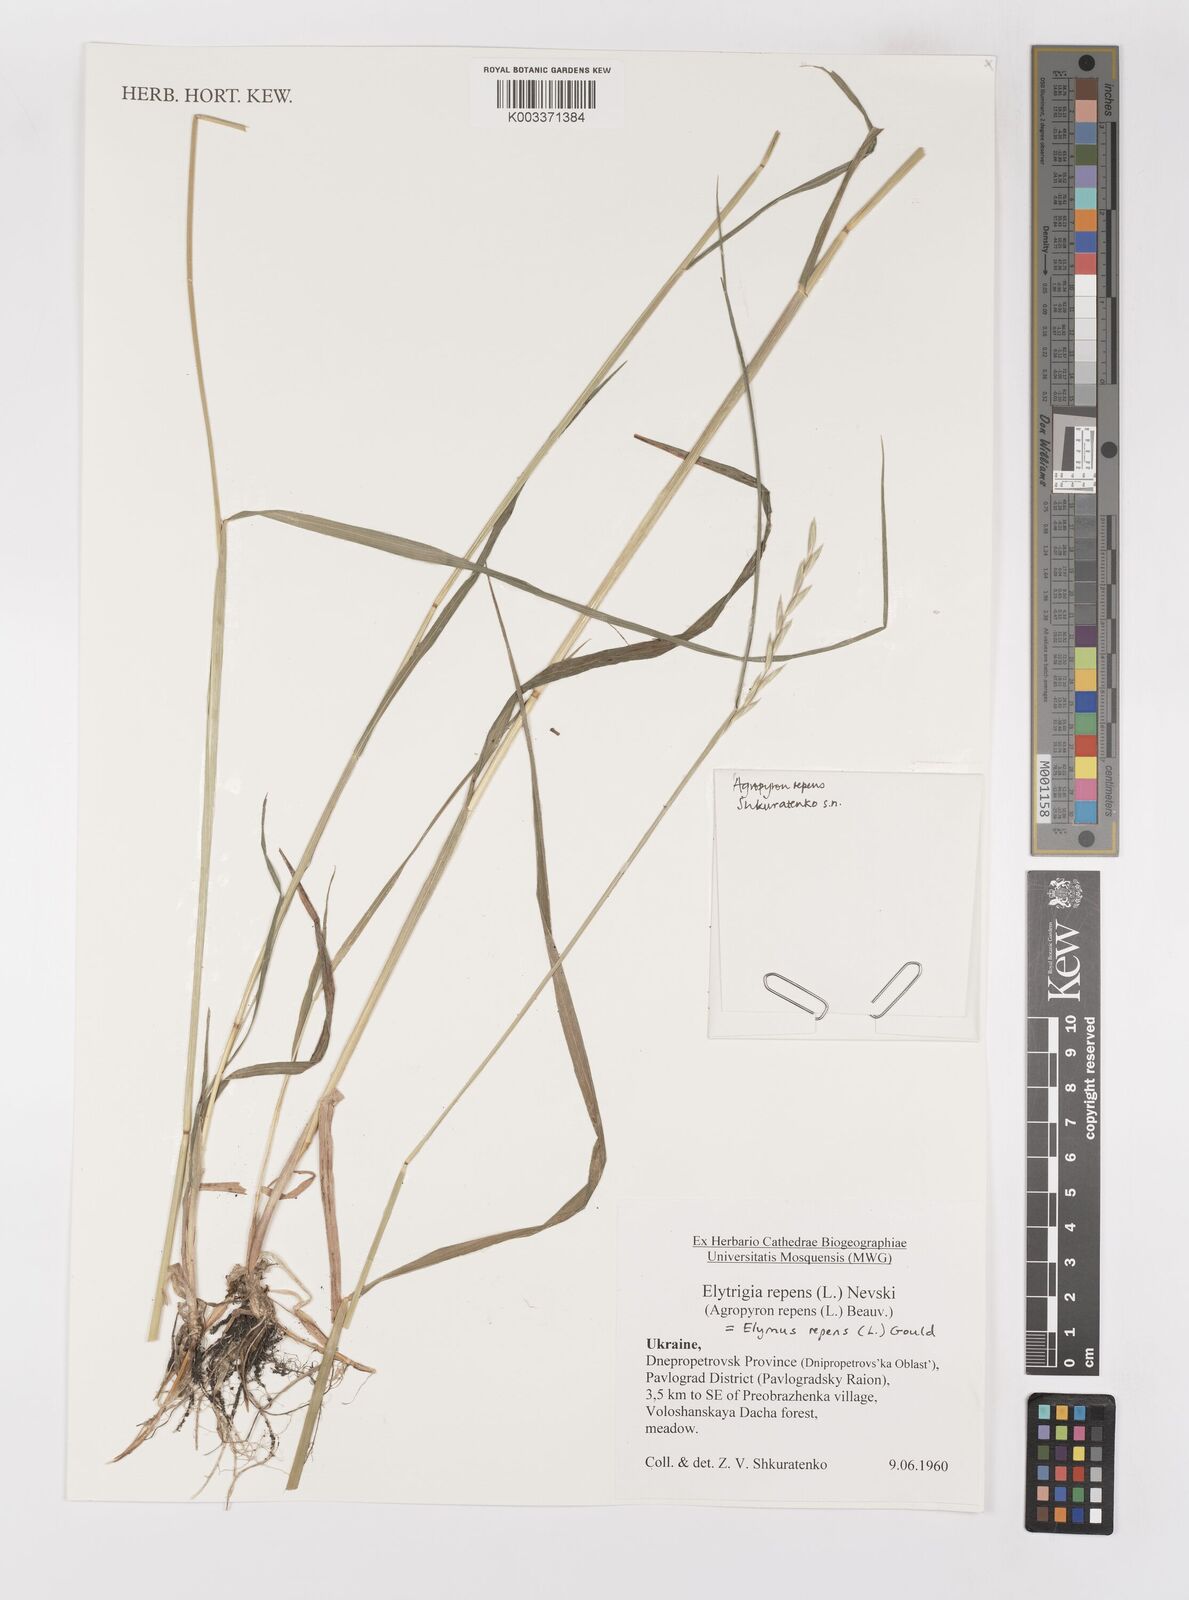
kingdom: Plantae
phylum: Tracheophyta
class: Liliopsida
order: Poales
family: Poaceae
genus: Elymus
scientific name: Elymus repens
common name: Quackgrass
